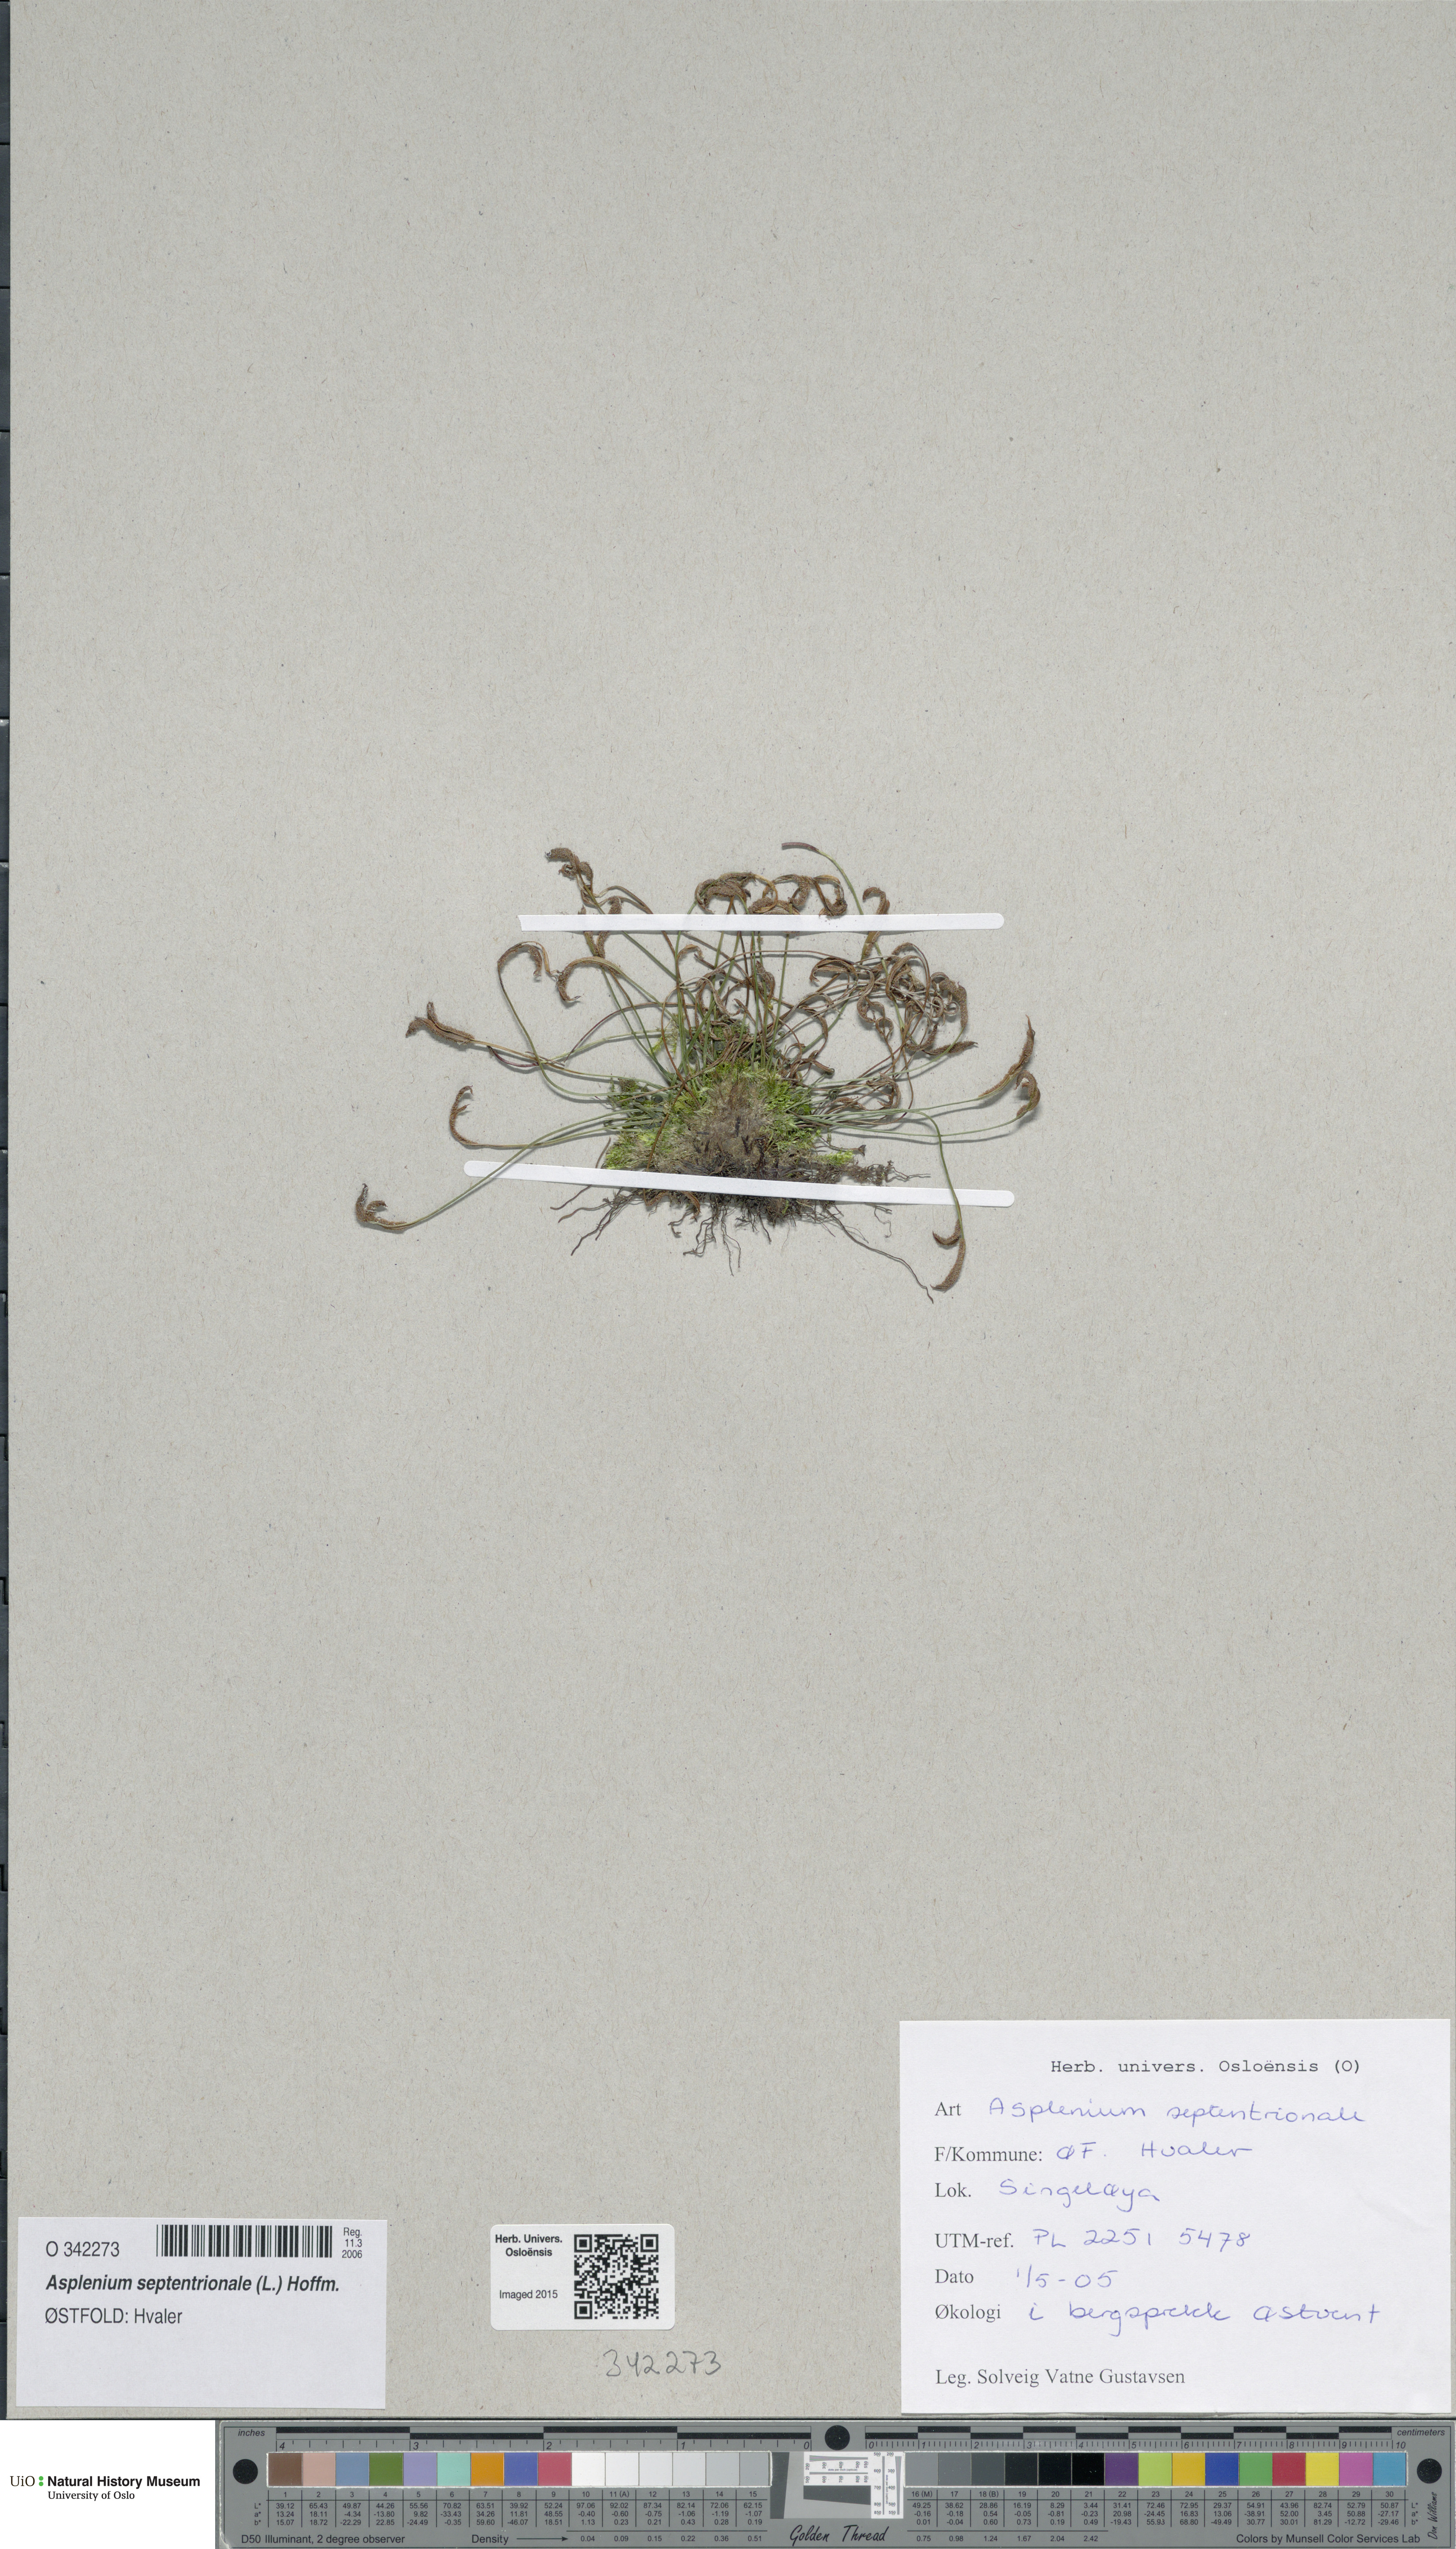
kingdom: Plantae
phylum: Tracheophyta
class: Polypodiopsida
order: Polypodiales
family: Aspleniaceae
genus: Asplenium
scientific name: Asplenium septentrionale
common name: Forked spleenwort
